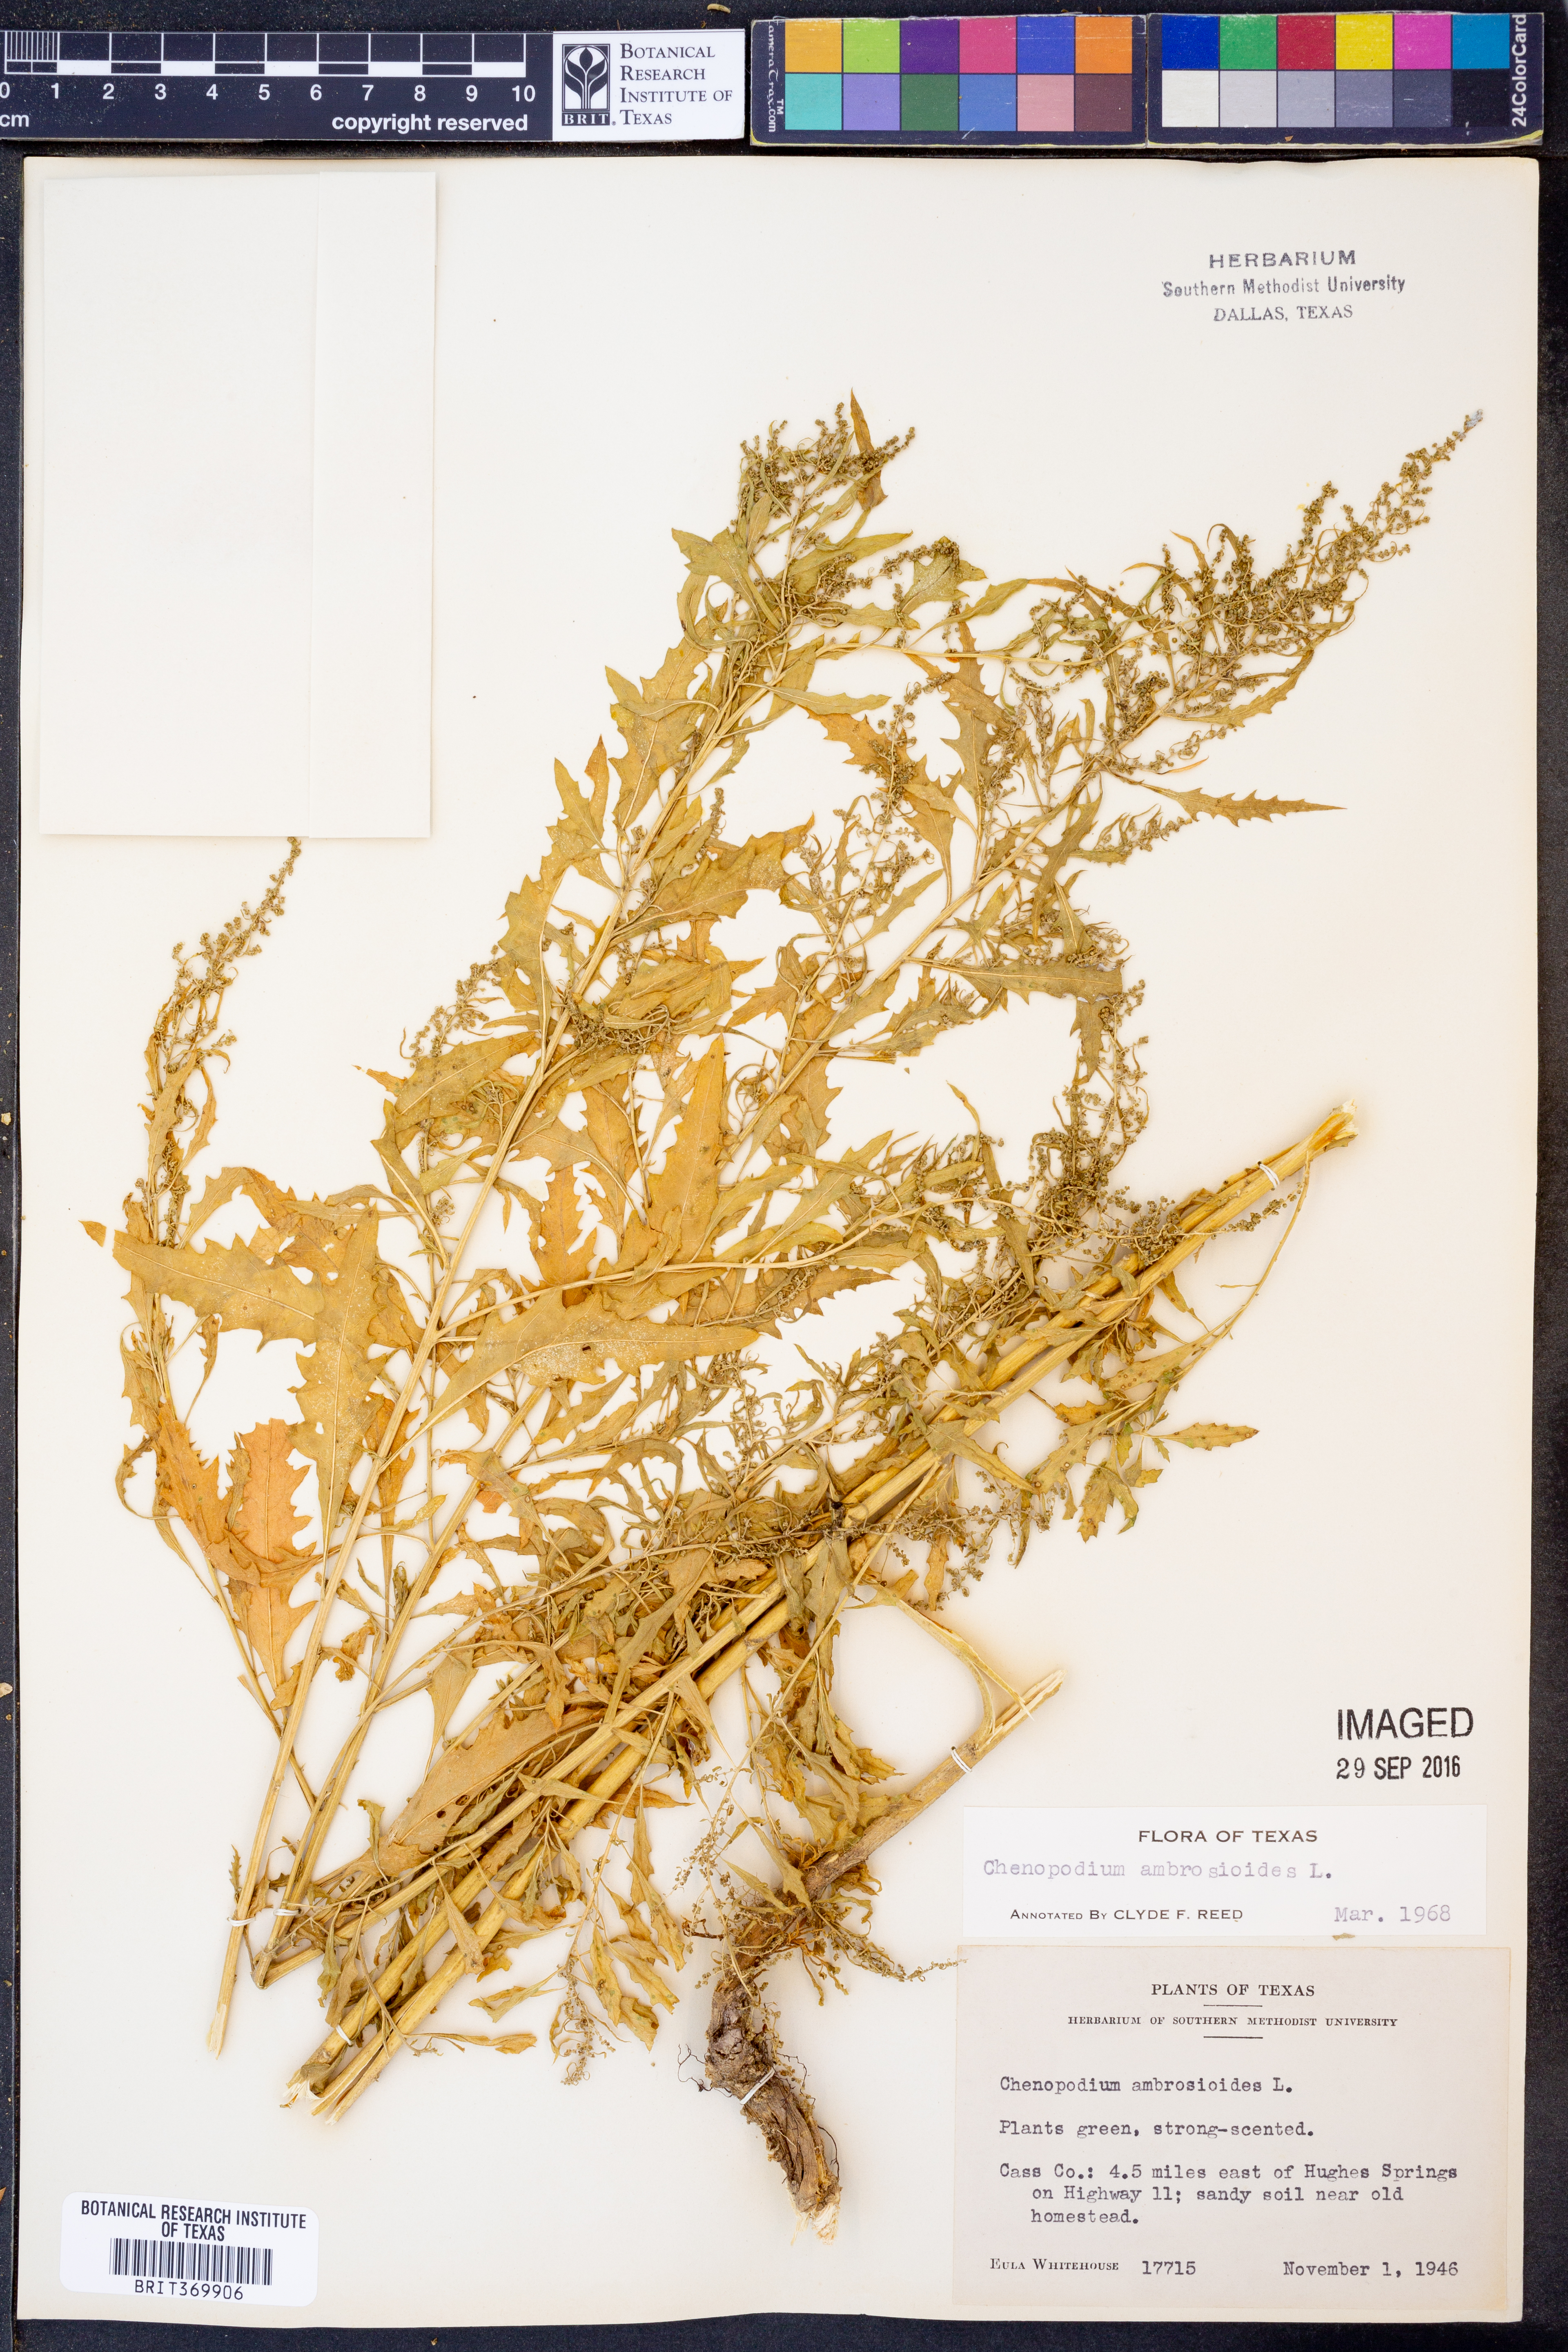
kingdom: Plantae
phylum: Tracheophyta
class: Magnoliopsida
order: Caryophyllales
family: Amaranthaceae
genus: Dysphania
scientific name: Dysphania ambrosioides
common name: Wormseed
